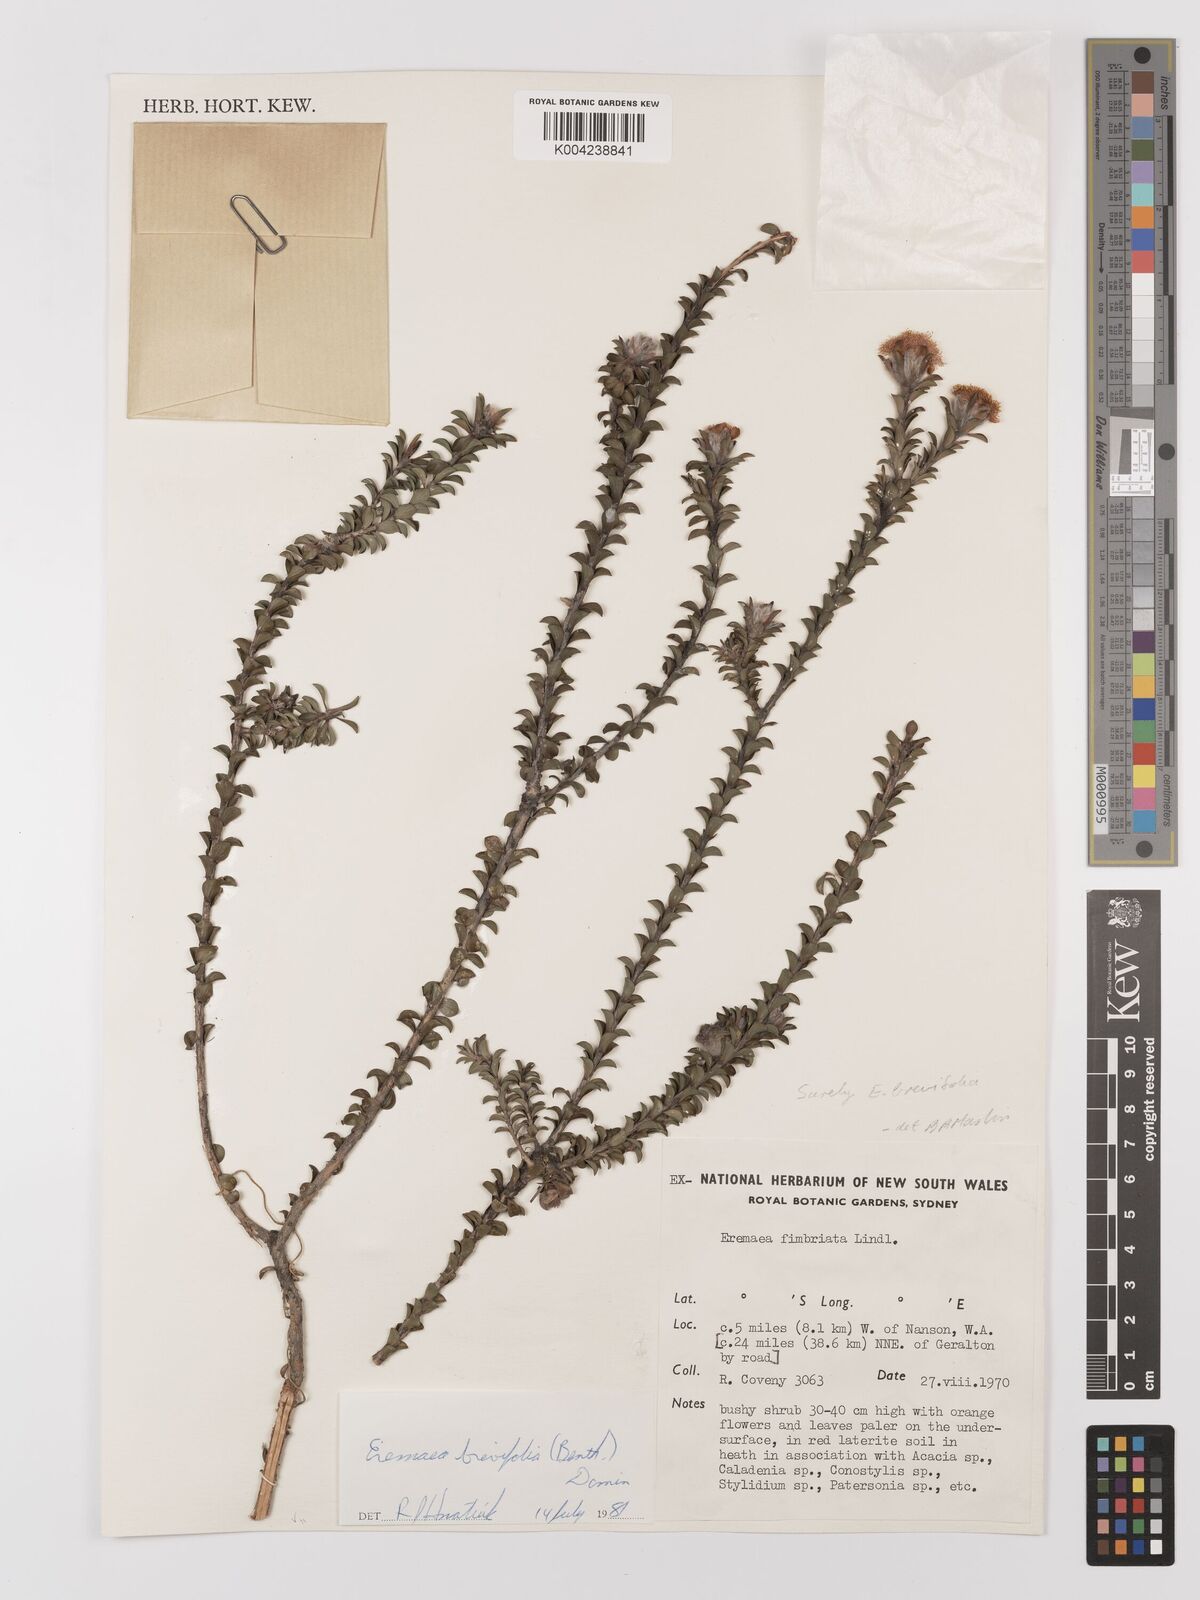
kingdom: Plantae
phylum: Tracheophyta
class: Magnoliopsida
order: Myrtales
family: Myrtaceae
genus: Melaleuca
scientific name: Melaleuca curtifolia
